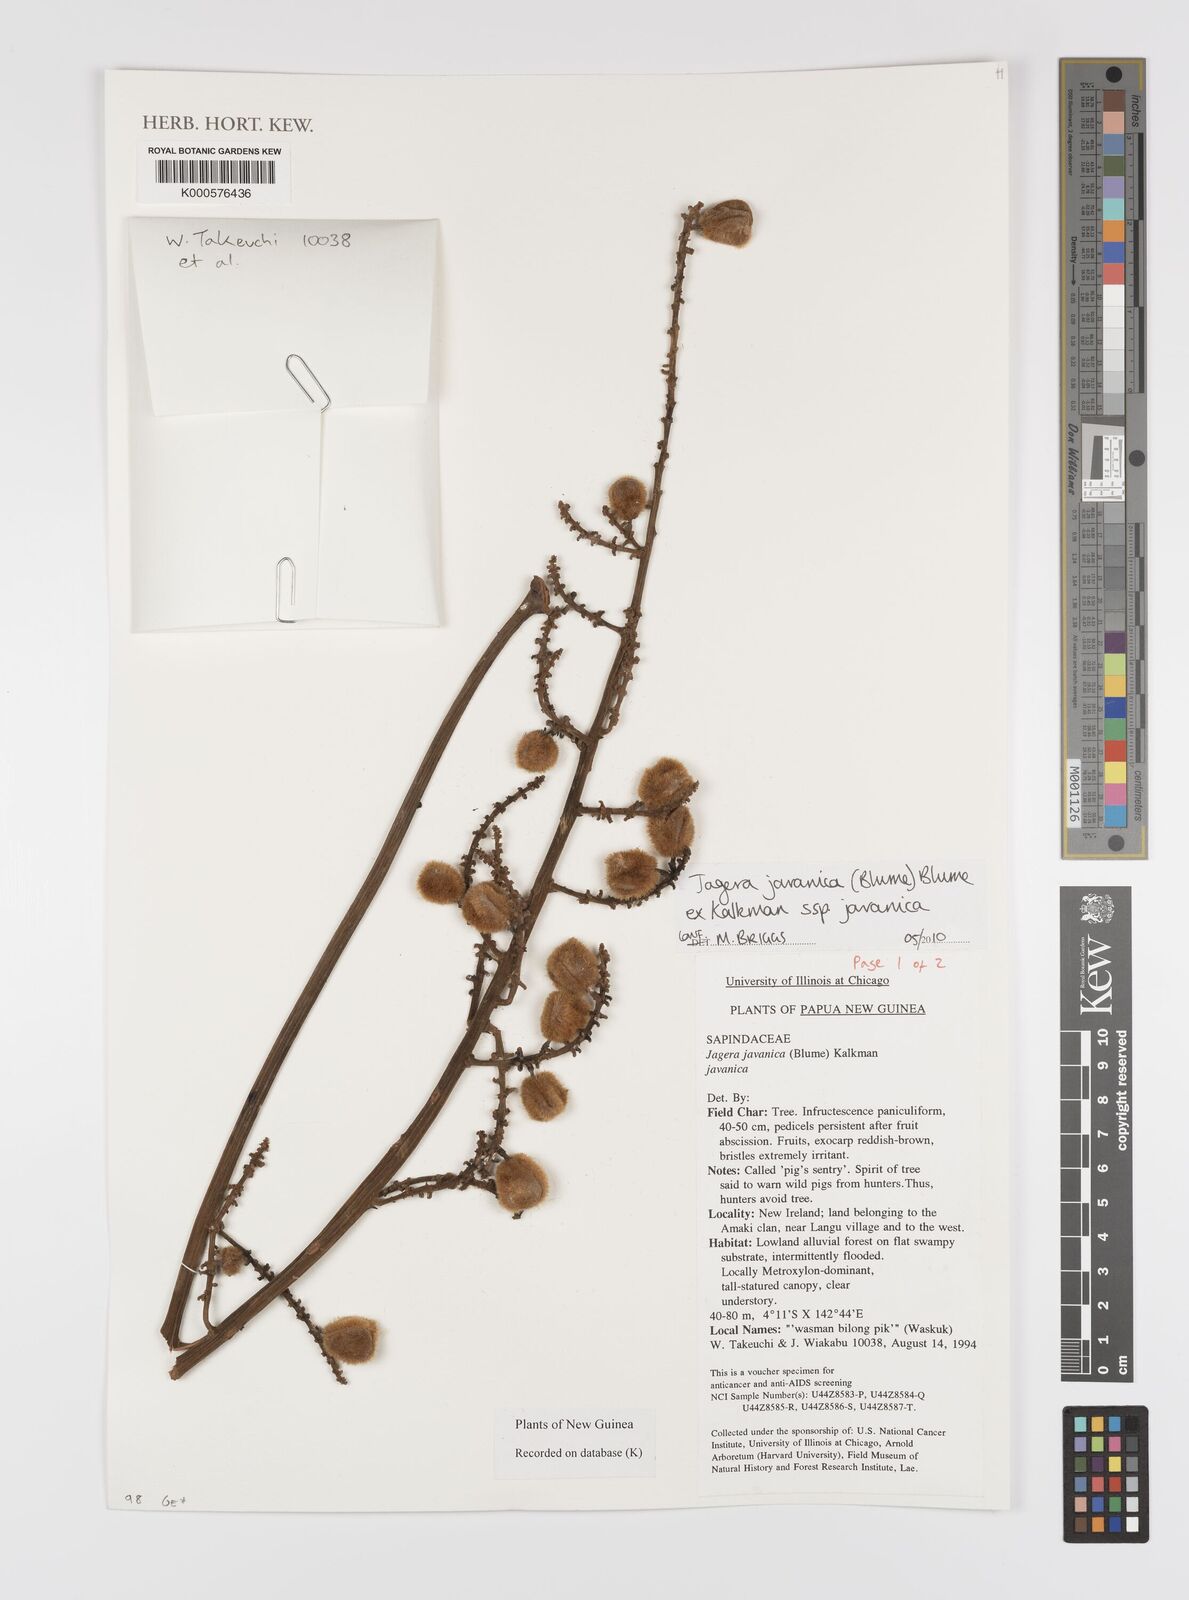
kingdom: Plantae
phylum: Tracheophyta
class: Magnoliopsida
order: Sapindales
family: Sapindaceae
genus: Jagera
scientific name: Jagera javanica
